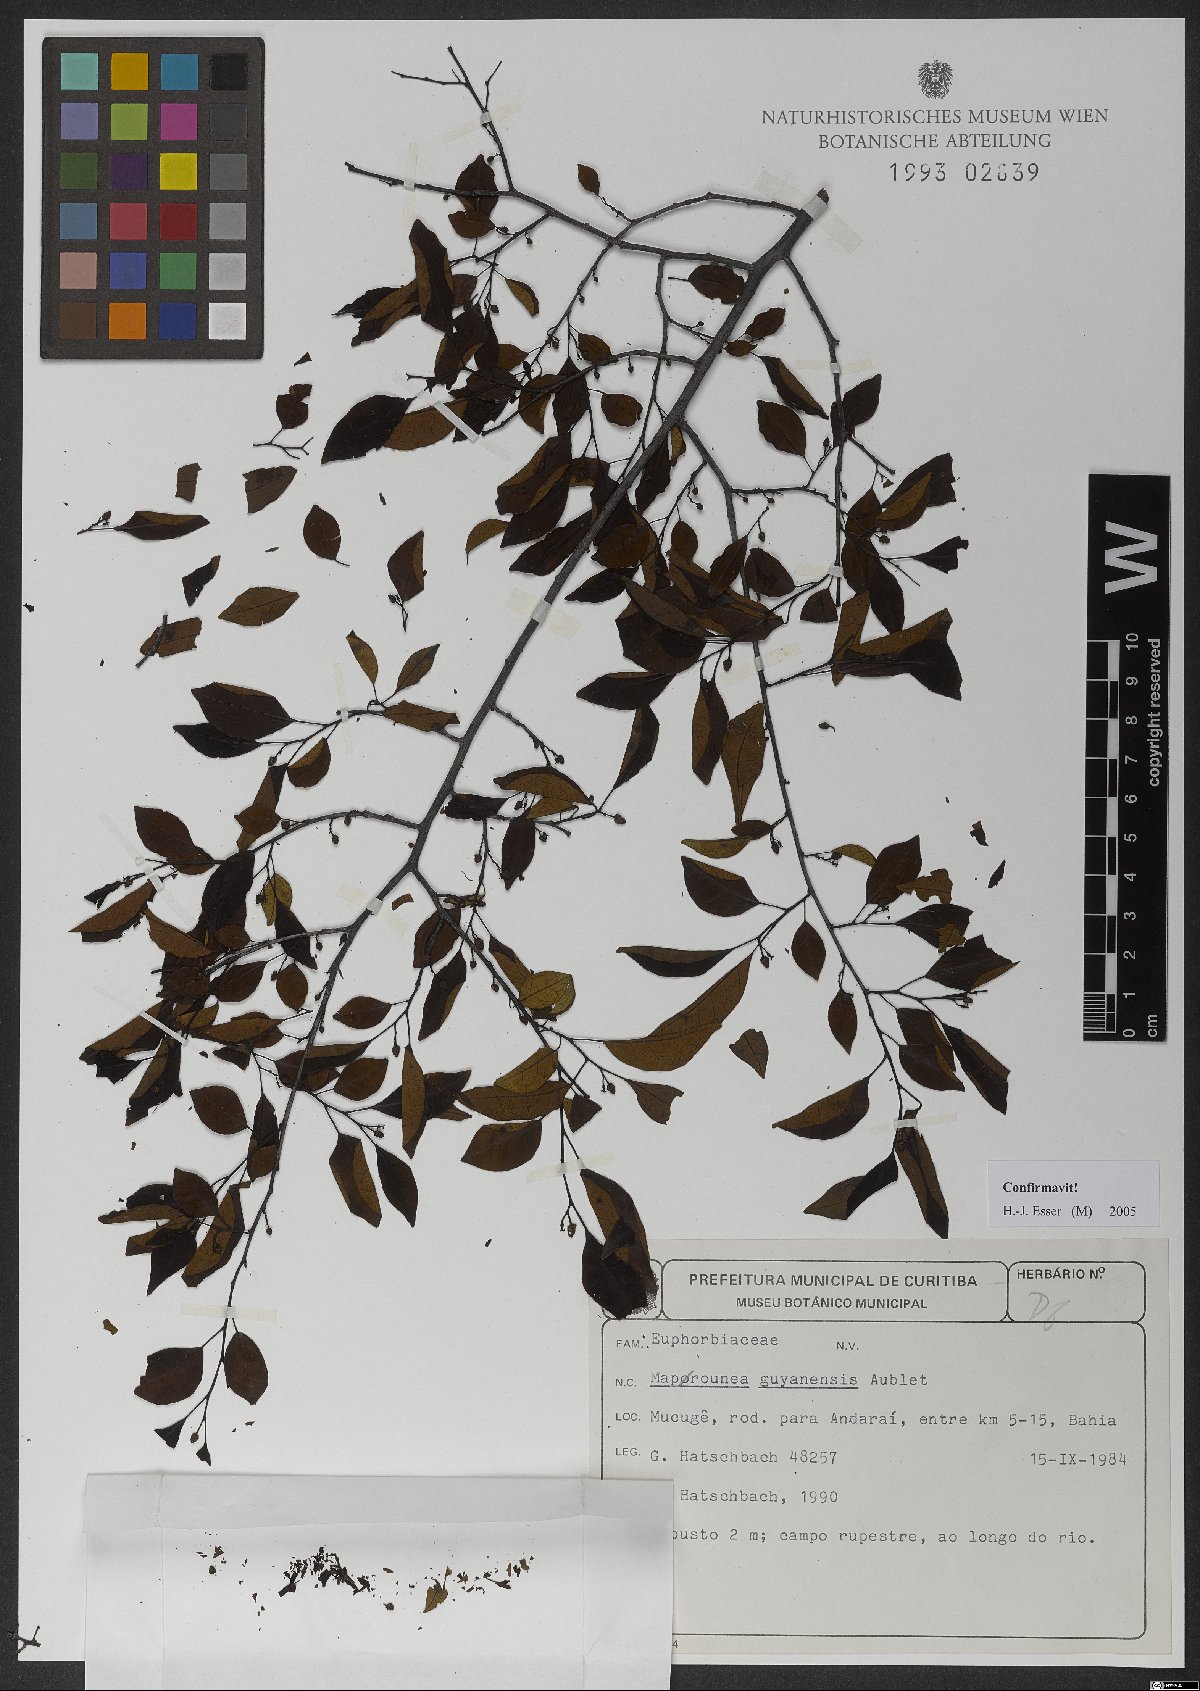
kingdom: Plantae
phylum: Tracheophyta
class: Magnoliopsida
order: Malpighiales
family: Euphorbiaceae
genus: Maprounea
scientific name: Maprounea guianensis
